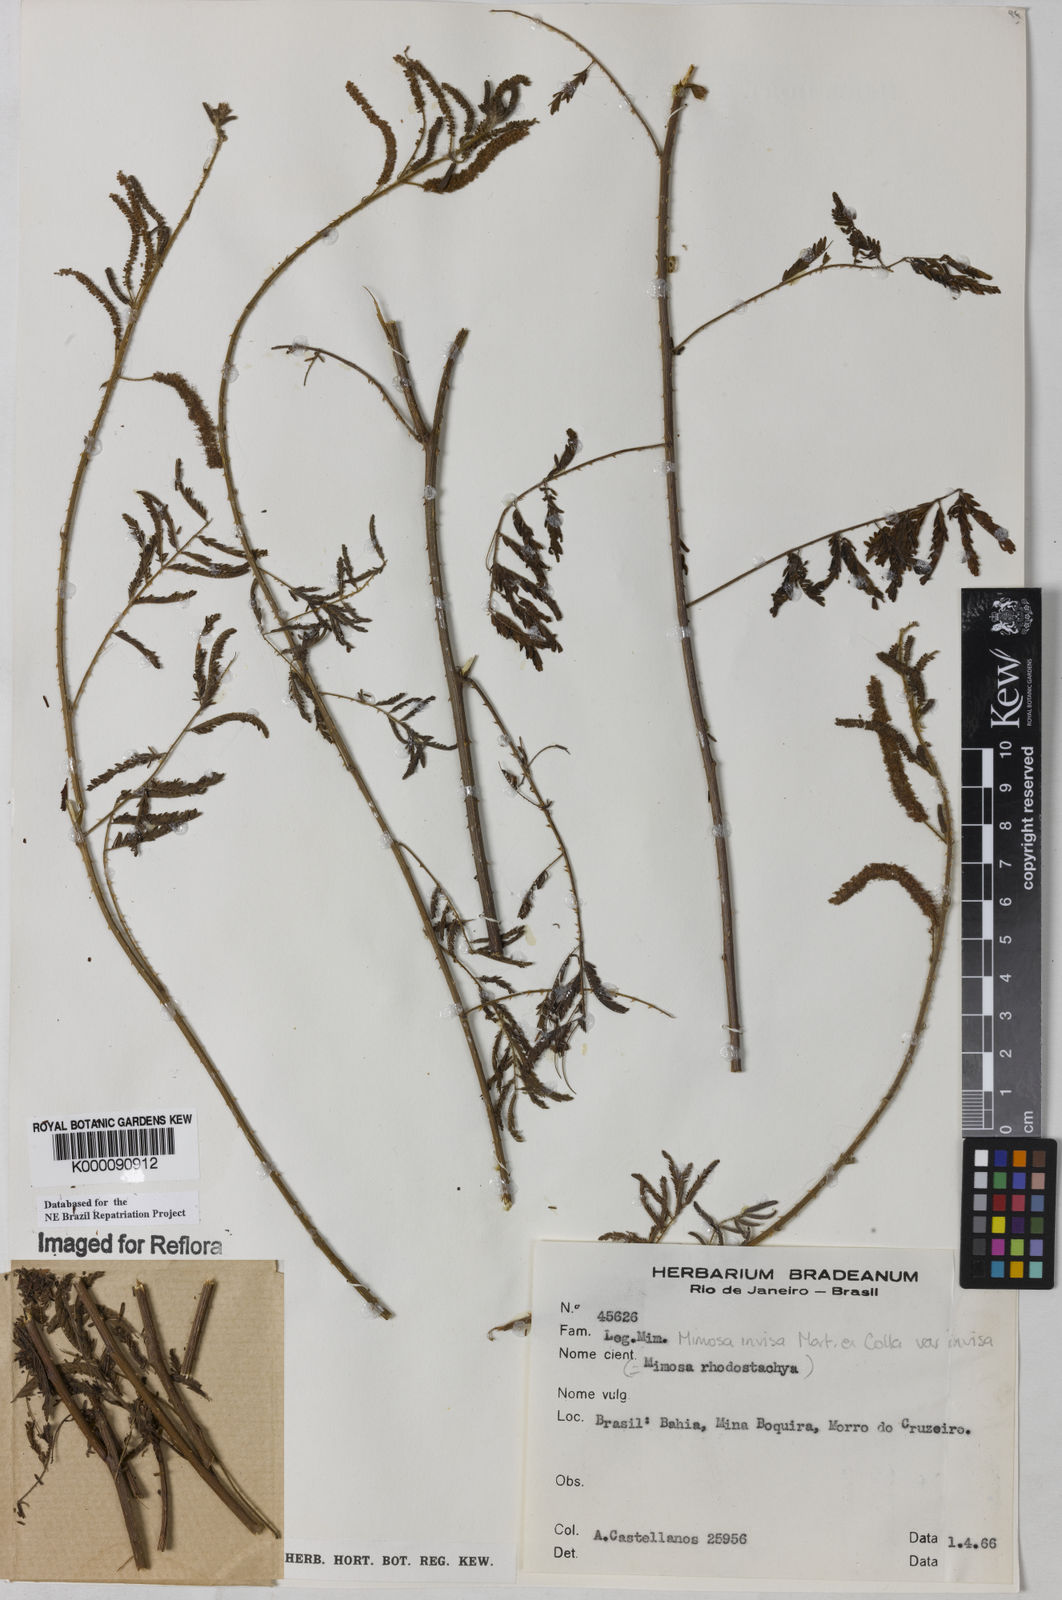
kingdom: Plantae
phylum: Tracheophyta
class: Magnoliopsida
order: Fabales
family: Fabaceae
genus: Mimosa
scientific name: Mimosa invisa
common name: Creeping sensitive-plant
